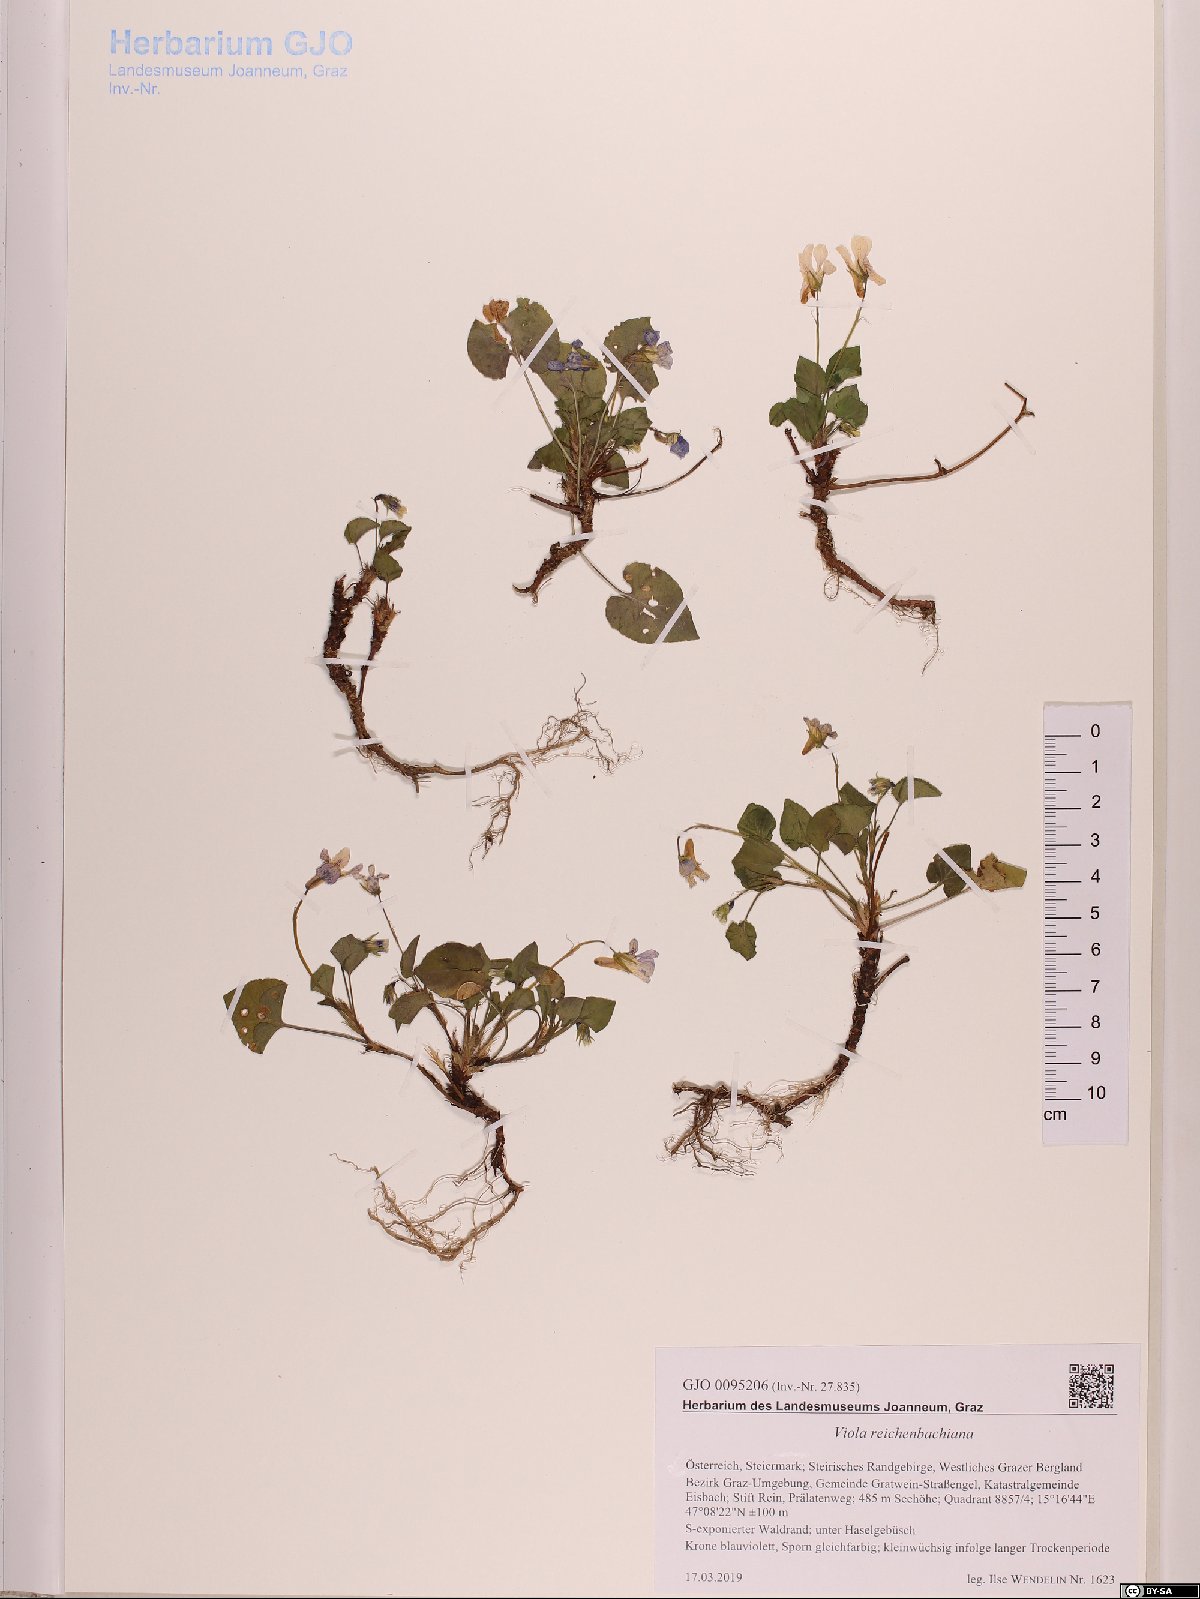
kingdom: Plantae
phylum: Tracheophyta
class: Magnoliopsida
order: Malpighiales
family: Violaceae
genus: Viola
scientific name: Viola reichenbachiana
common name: Early dog-violet
